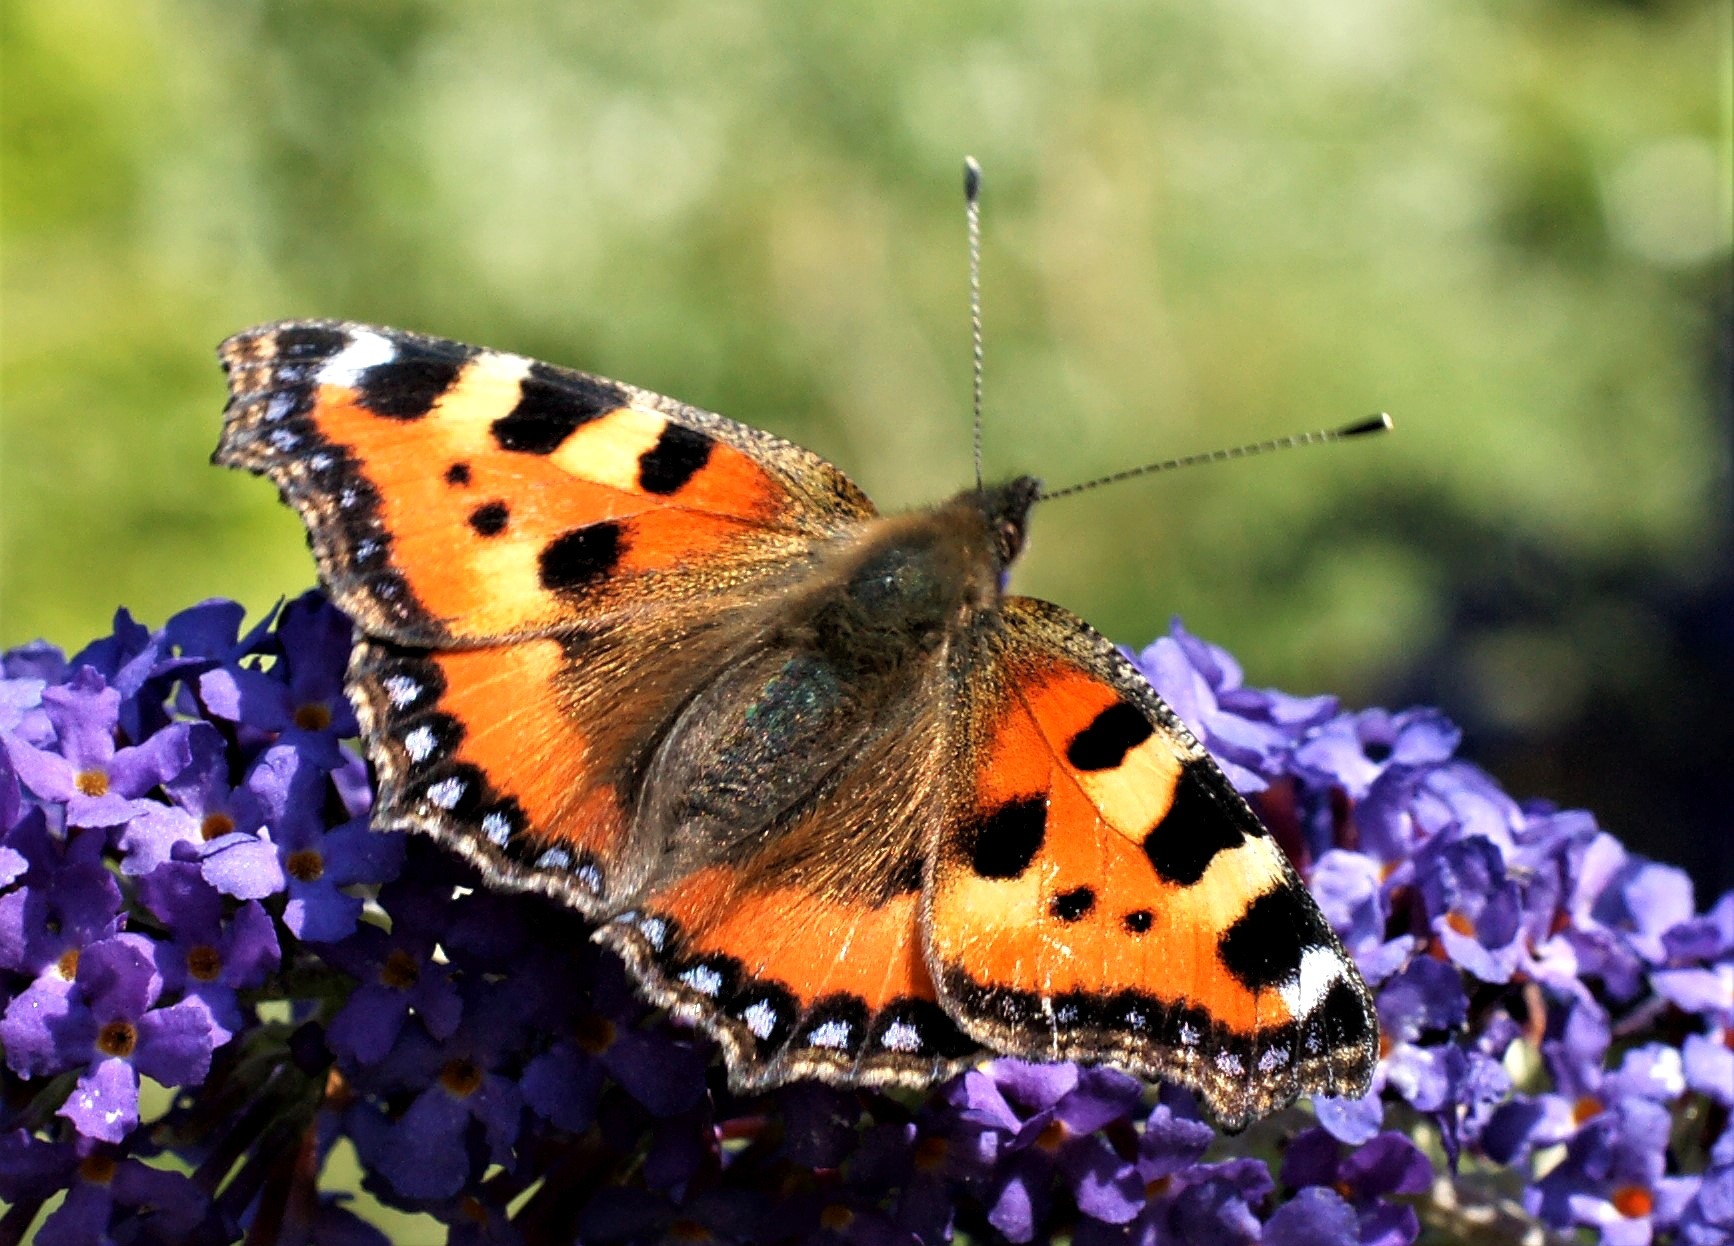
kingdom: Animalia
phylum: Arthropoda
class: Insecta
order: Lepidoptera
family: Nymphalidae
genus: Aglais
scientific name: Aglais urticae
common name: Nældens takvinge
